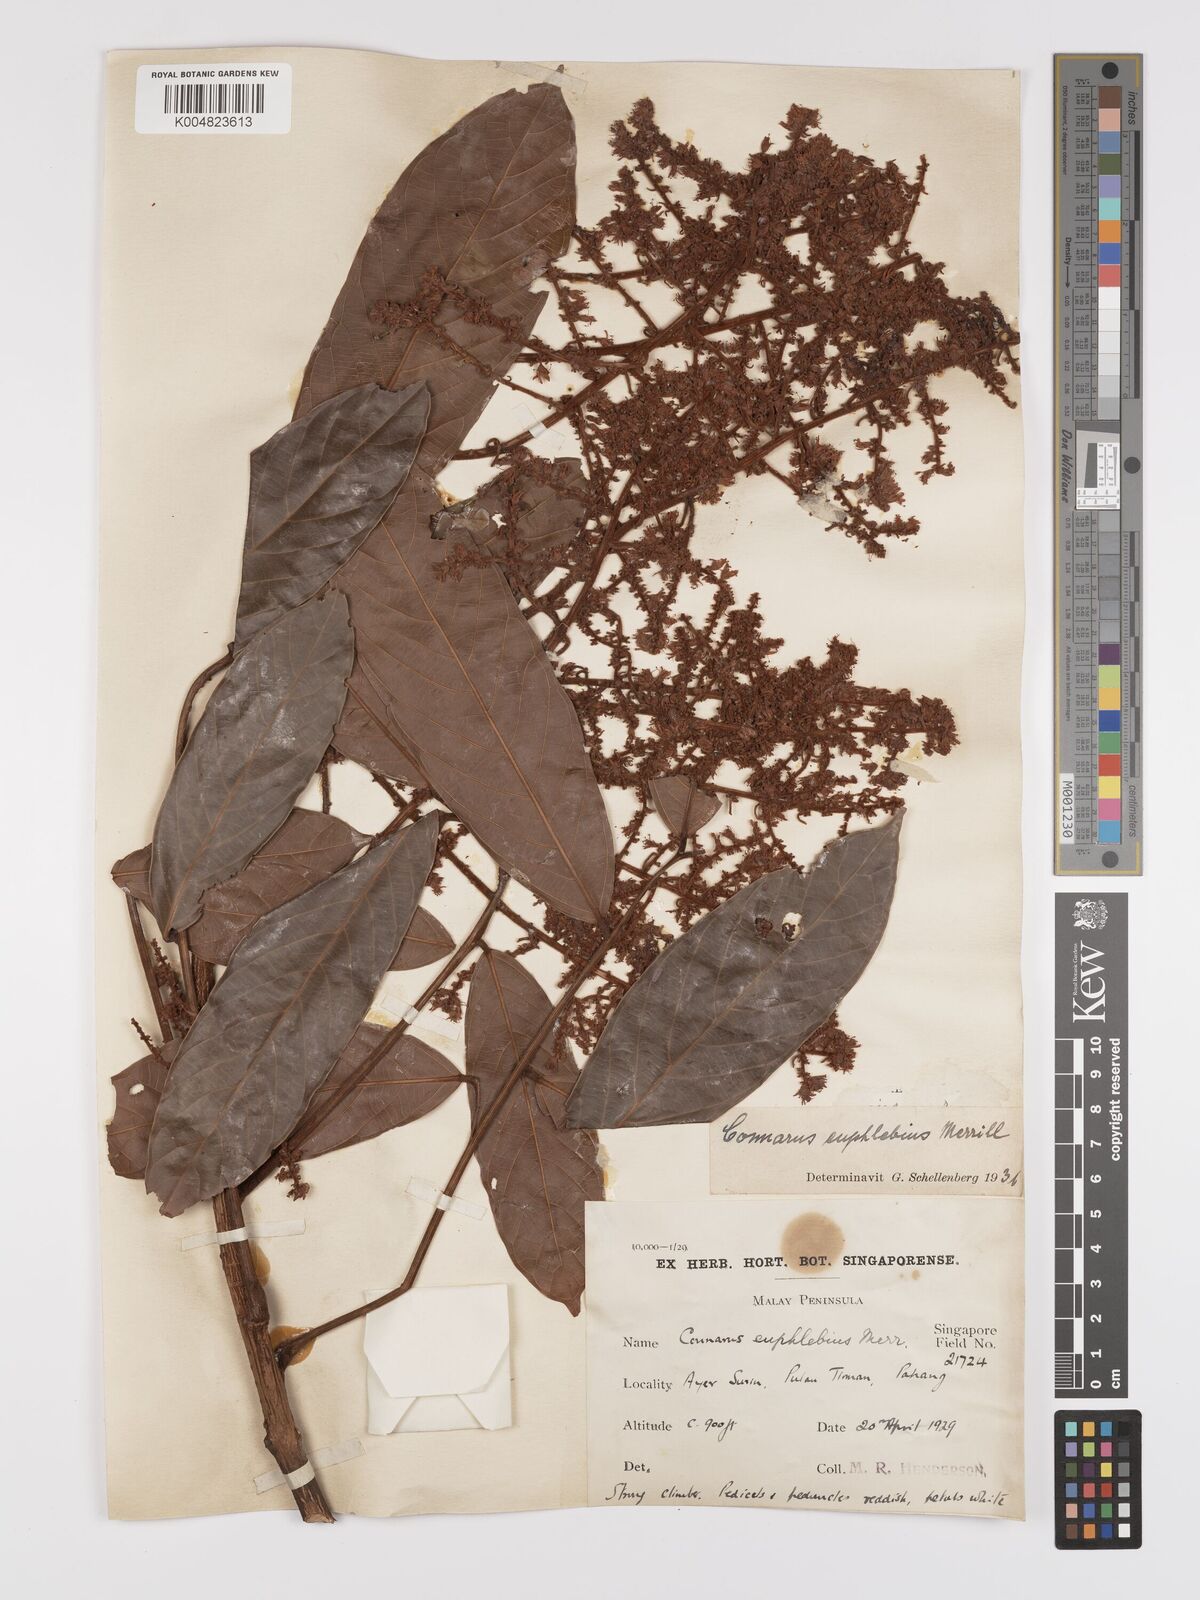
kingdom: Plantae
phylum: Tracheophyta
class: Magnoliopsida
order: Oxalidales
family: Connaraceae
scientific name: Connaraceae
